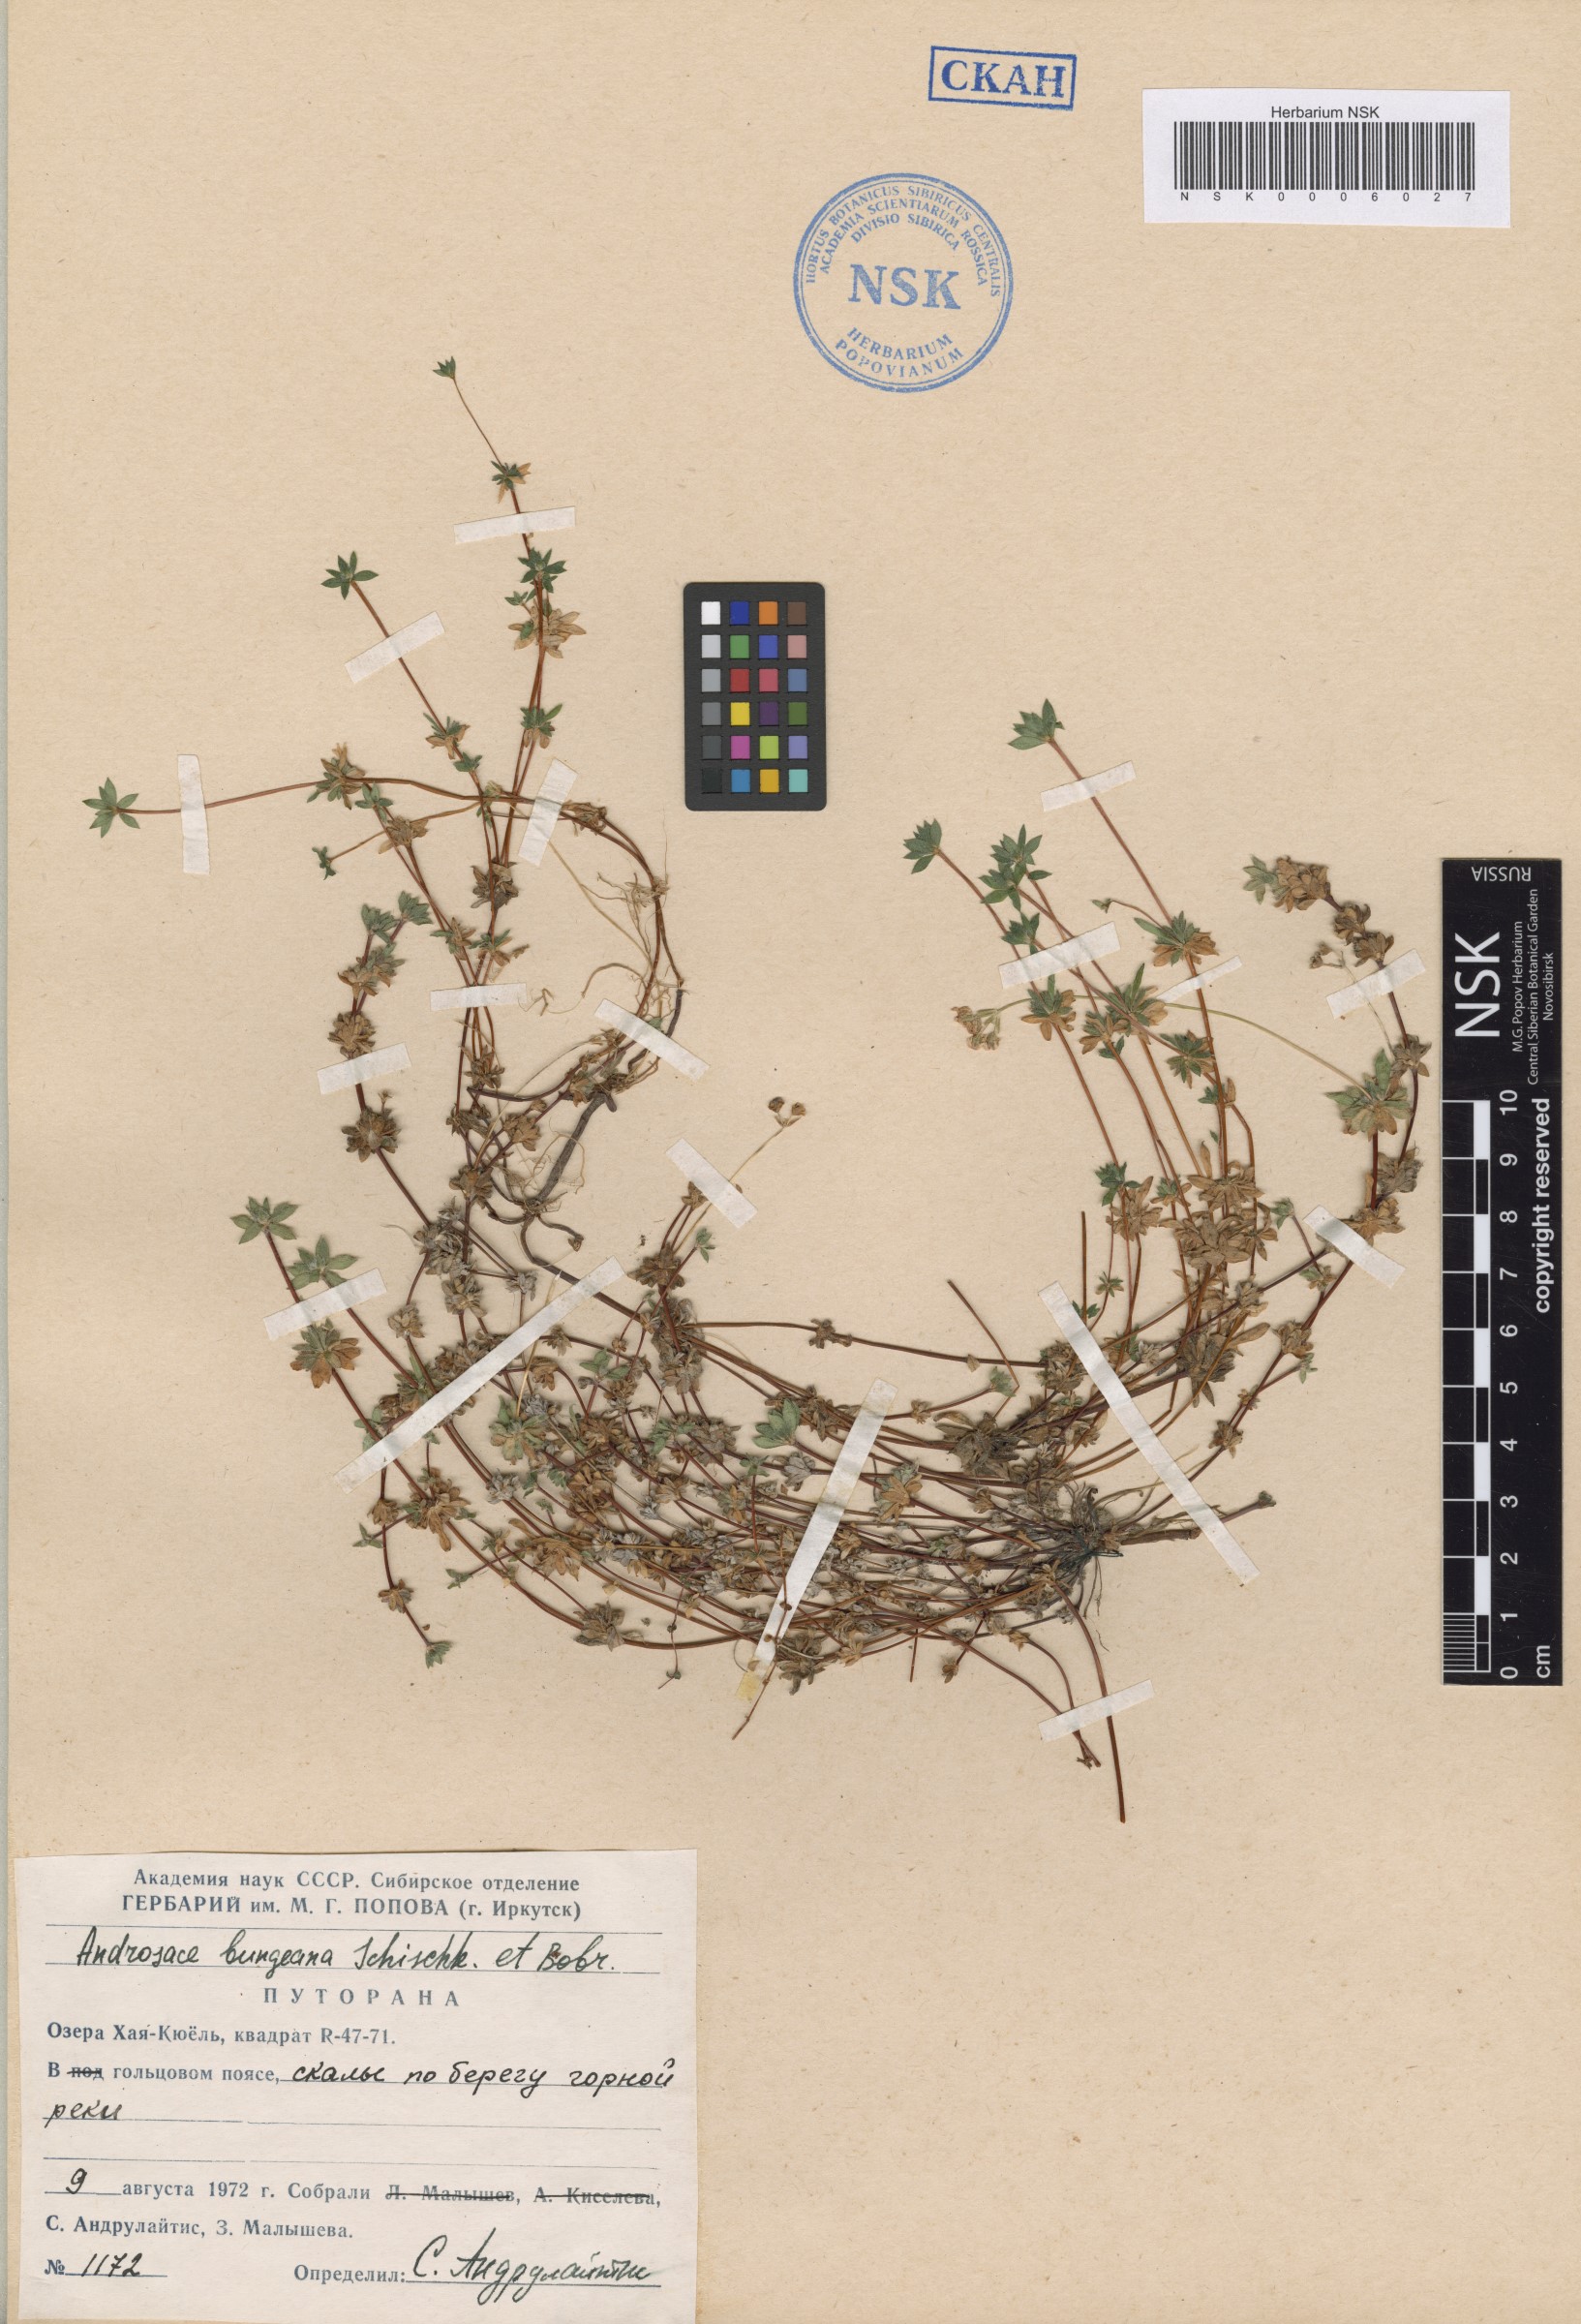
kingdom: Plantae
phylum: Tracheophyta
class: Magnoliopsida
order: Ericales
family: Primulaceae
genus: Androsace
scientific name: Androsace bungeana
